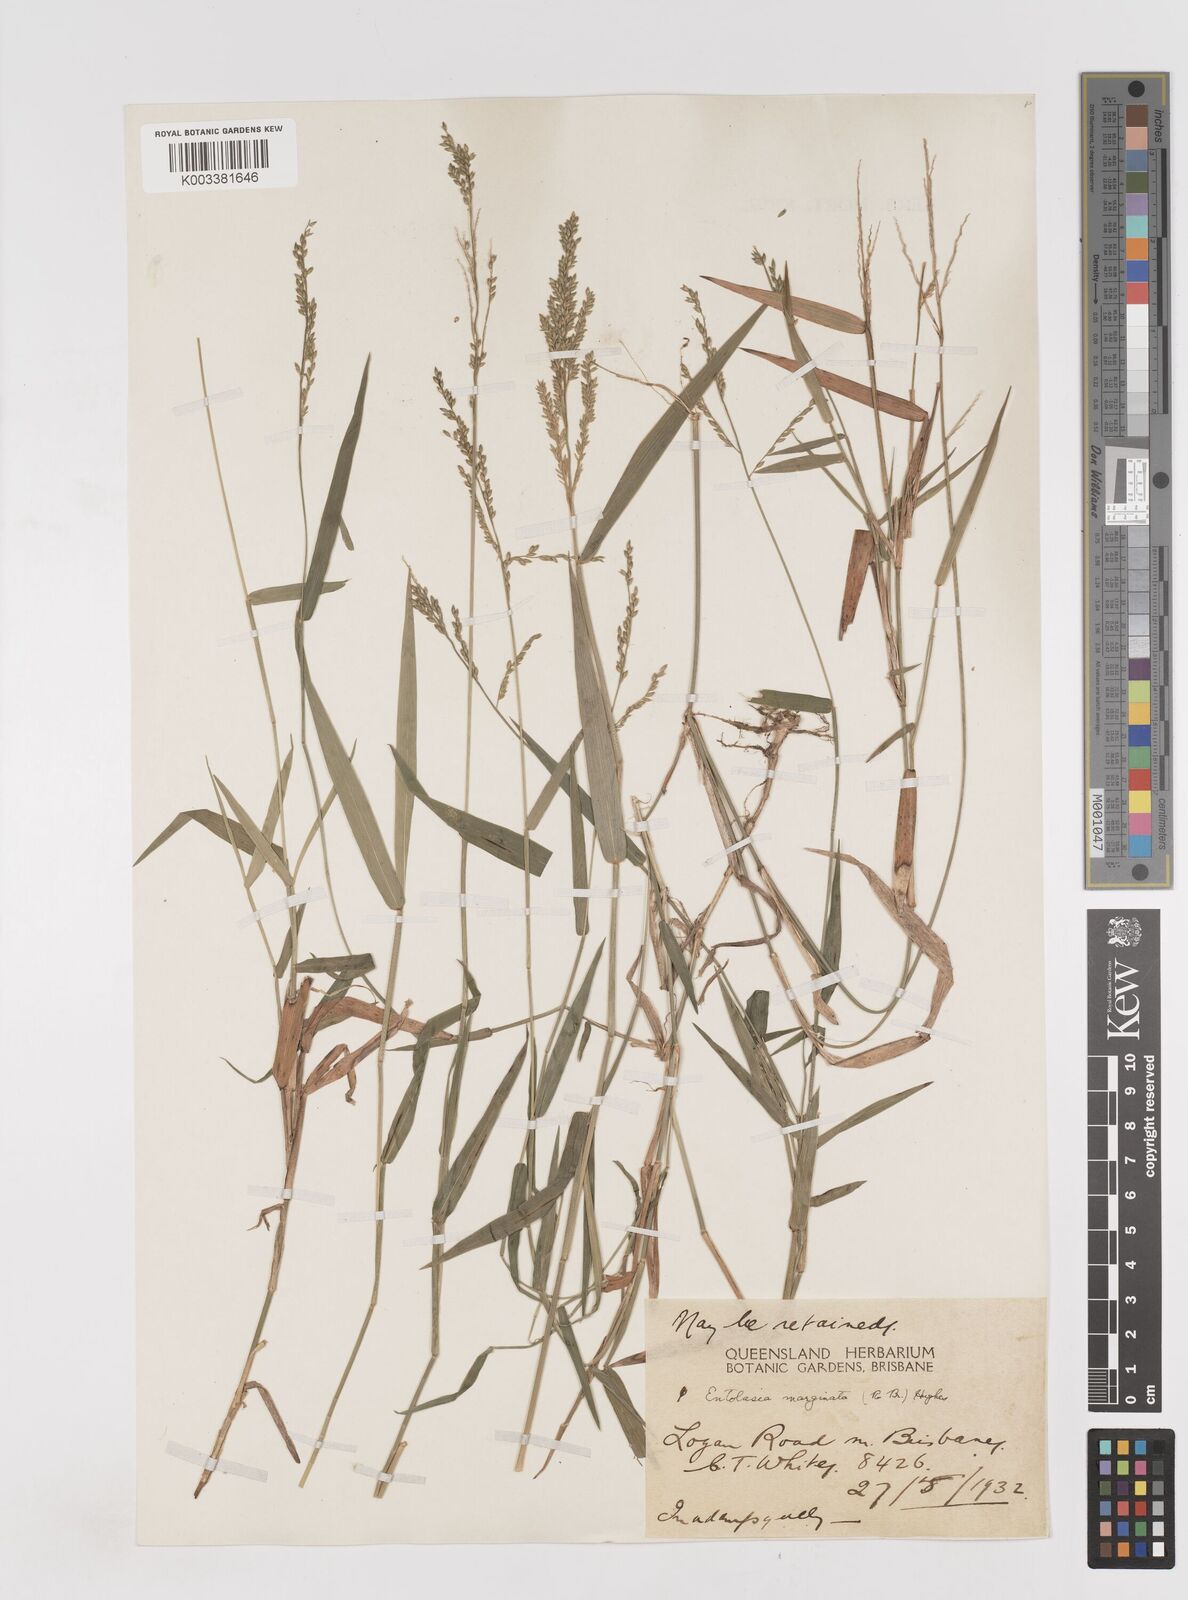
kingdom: Plantae
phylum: Tracheophyta
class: Liliopsida
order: Poales
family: Poaceae
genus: Entolasia
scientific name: Entolasia marginata
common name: Australian panicgrass
